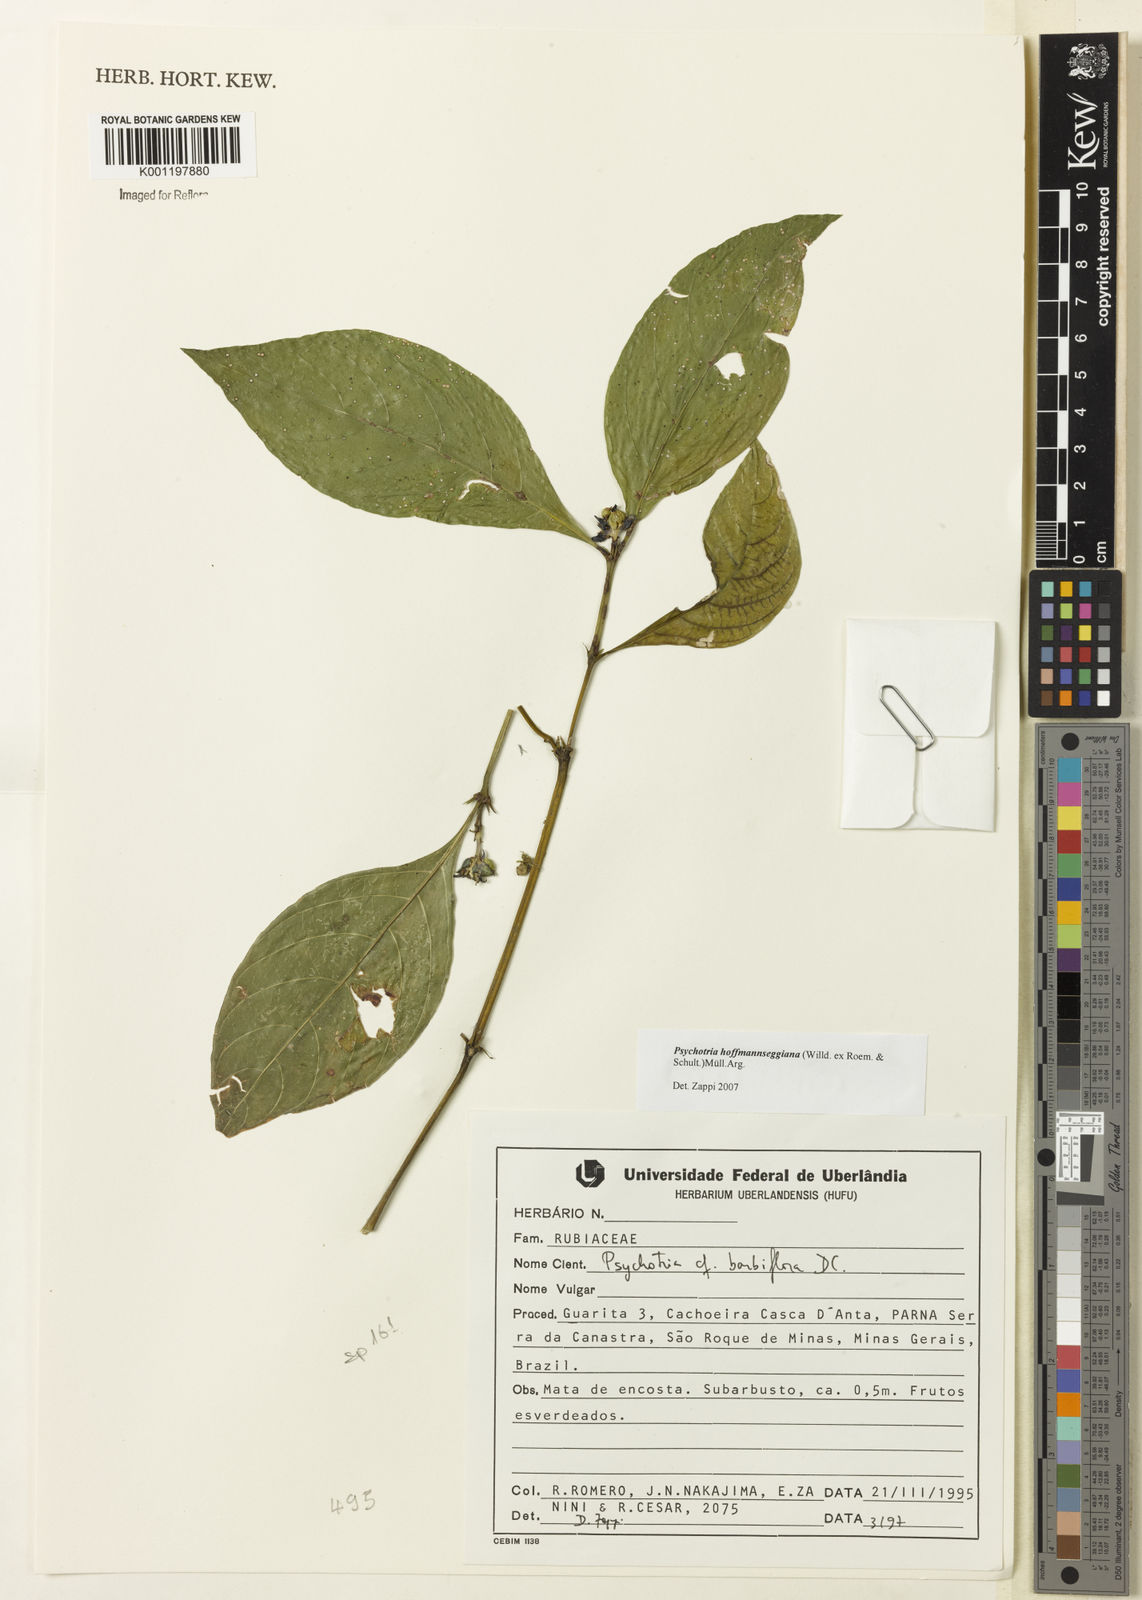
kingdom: Plantae
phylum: Tracheophyta
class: Magnoliopsida
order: Gentianales
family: Rubiaceae
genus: Psychotria
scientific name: Psychotria
